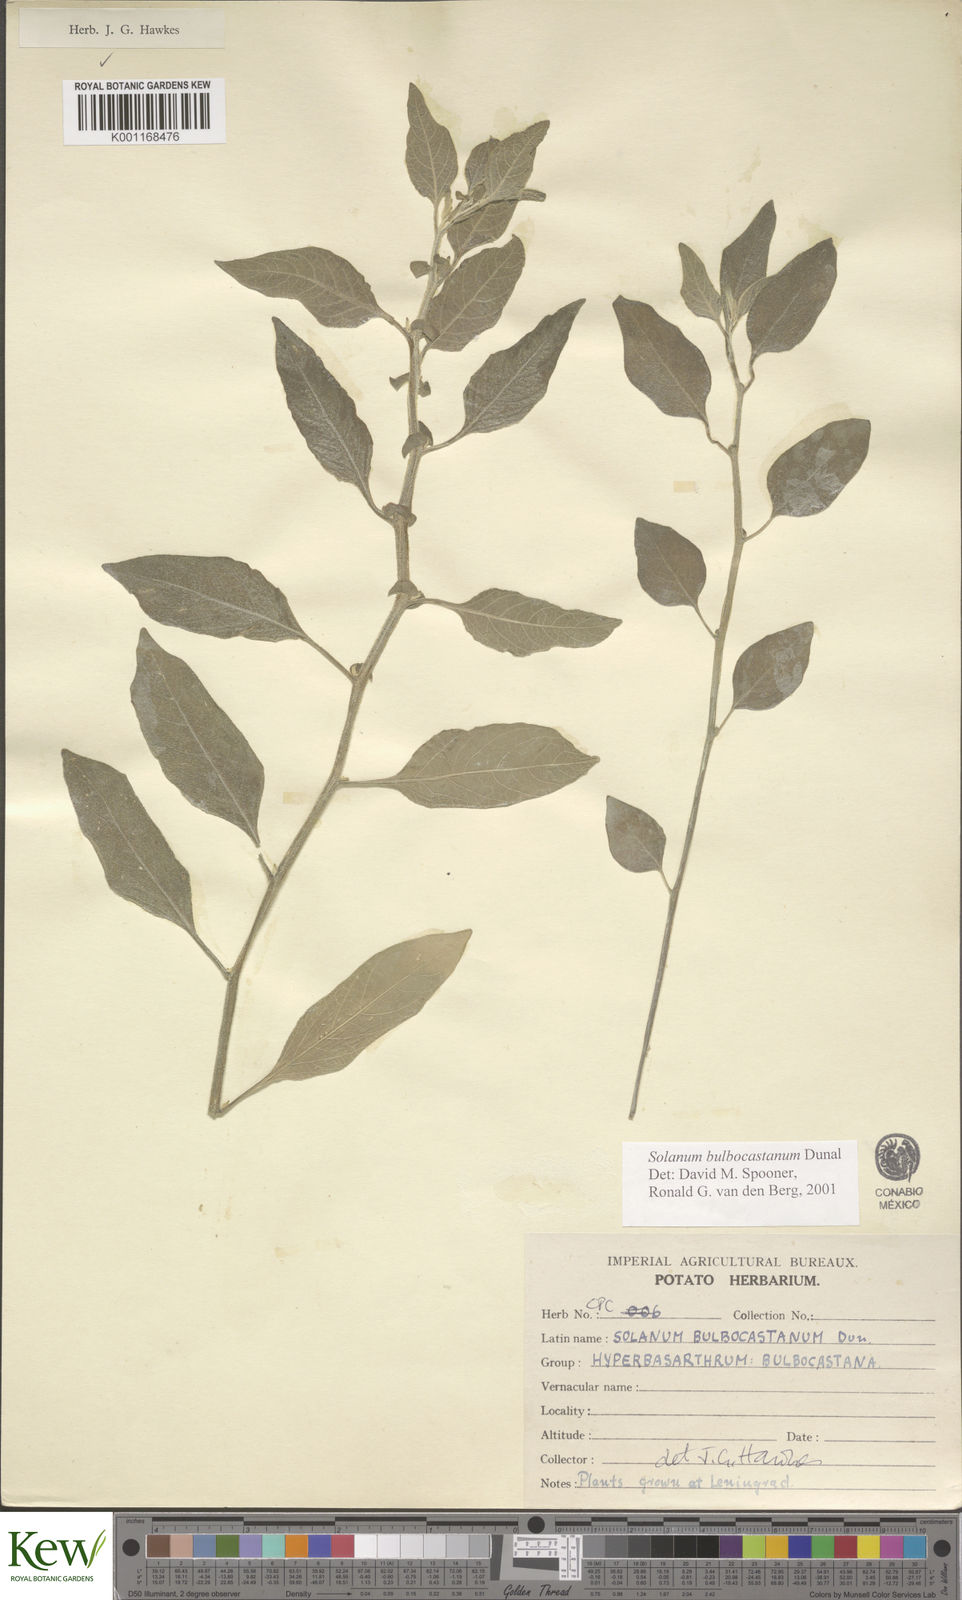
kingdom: Plantae
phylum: Tracheophyta
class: Magnoliopsida
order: Solanales
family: Solanaceae
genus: Solanum
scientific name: Solanum bulbocastanum
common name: Ornamental nightshade
